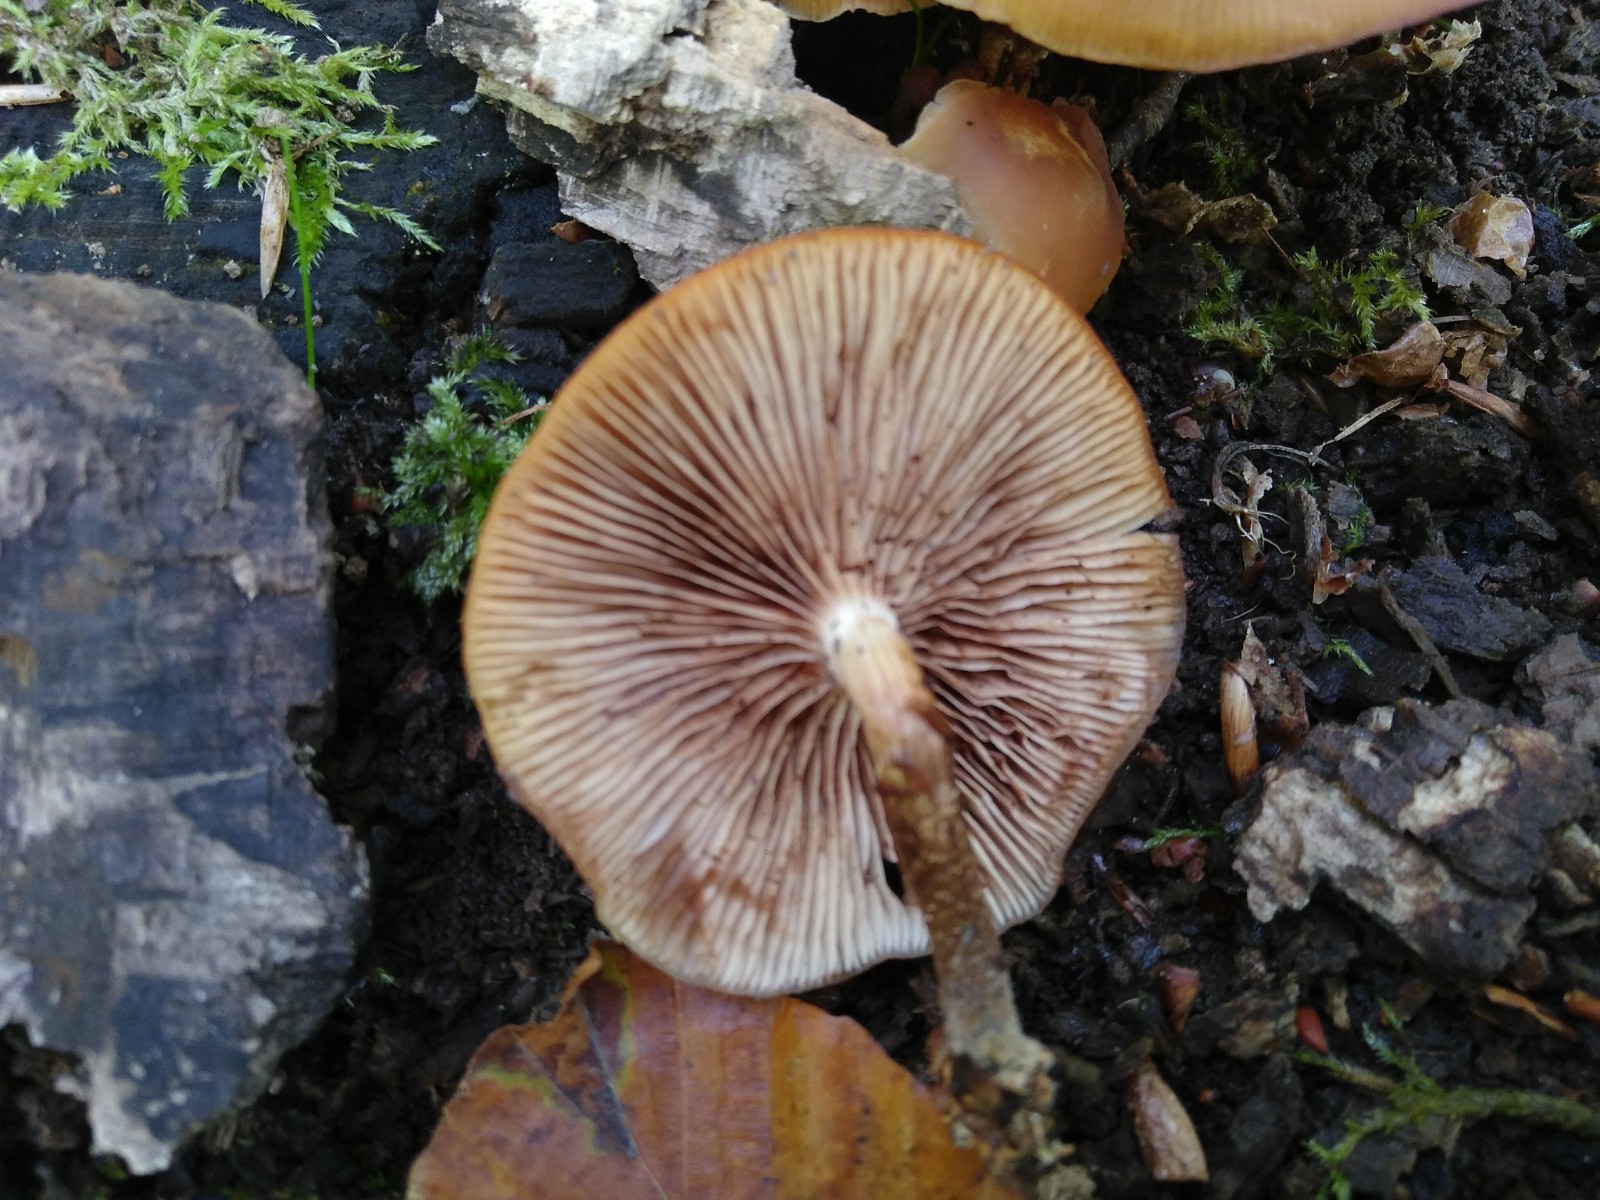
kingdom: Fungi
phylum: Basidiomycota
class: Agaricomycetes
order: Agaricales
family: Strophariaceae
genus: Kuehneromyces
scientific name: Kuehneromyces mutabilis
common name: foranderlig skælhat
